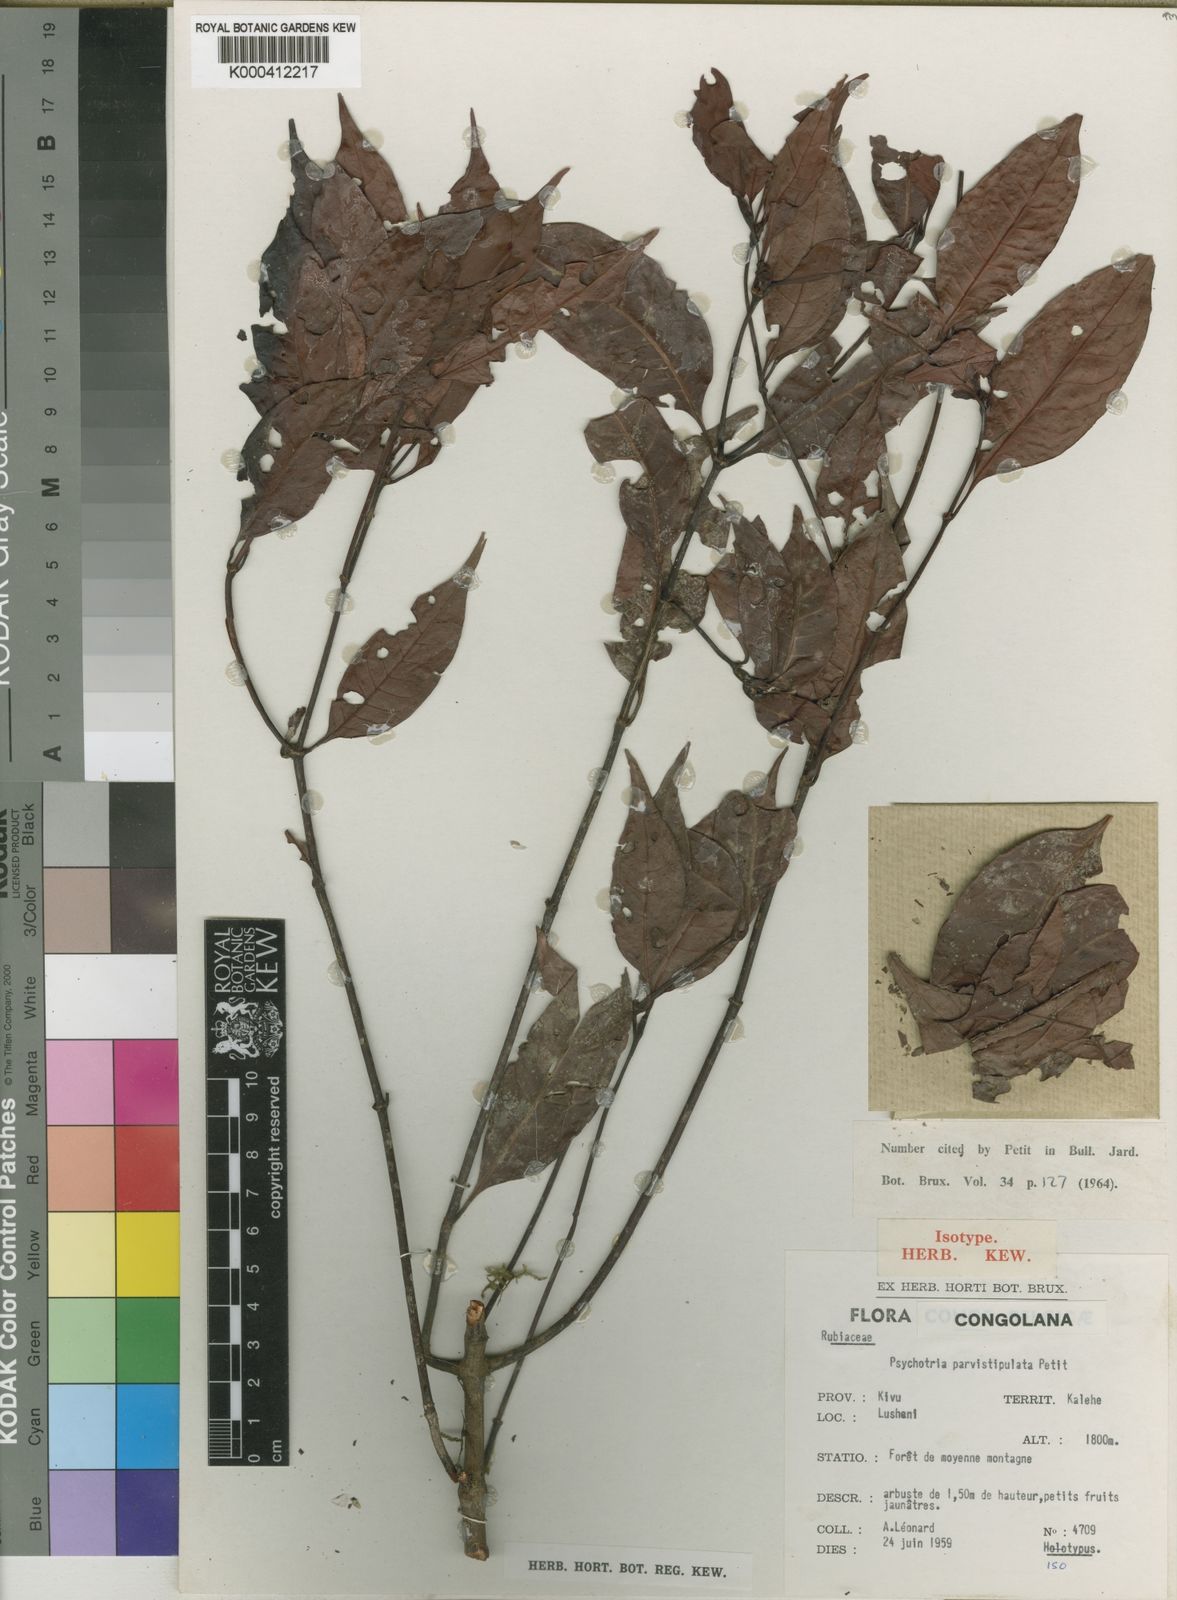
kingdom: Plantae
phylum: Tracheophyta
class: Magnoliopsida
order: Gentianales
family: Rubiaceae
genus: Psychotria
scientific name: Psychotria parvistipulata
